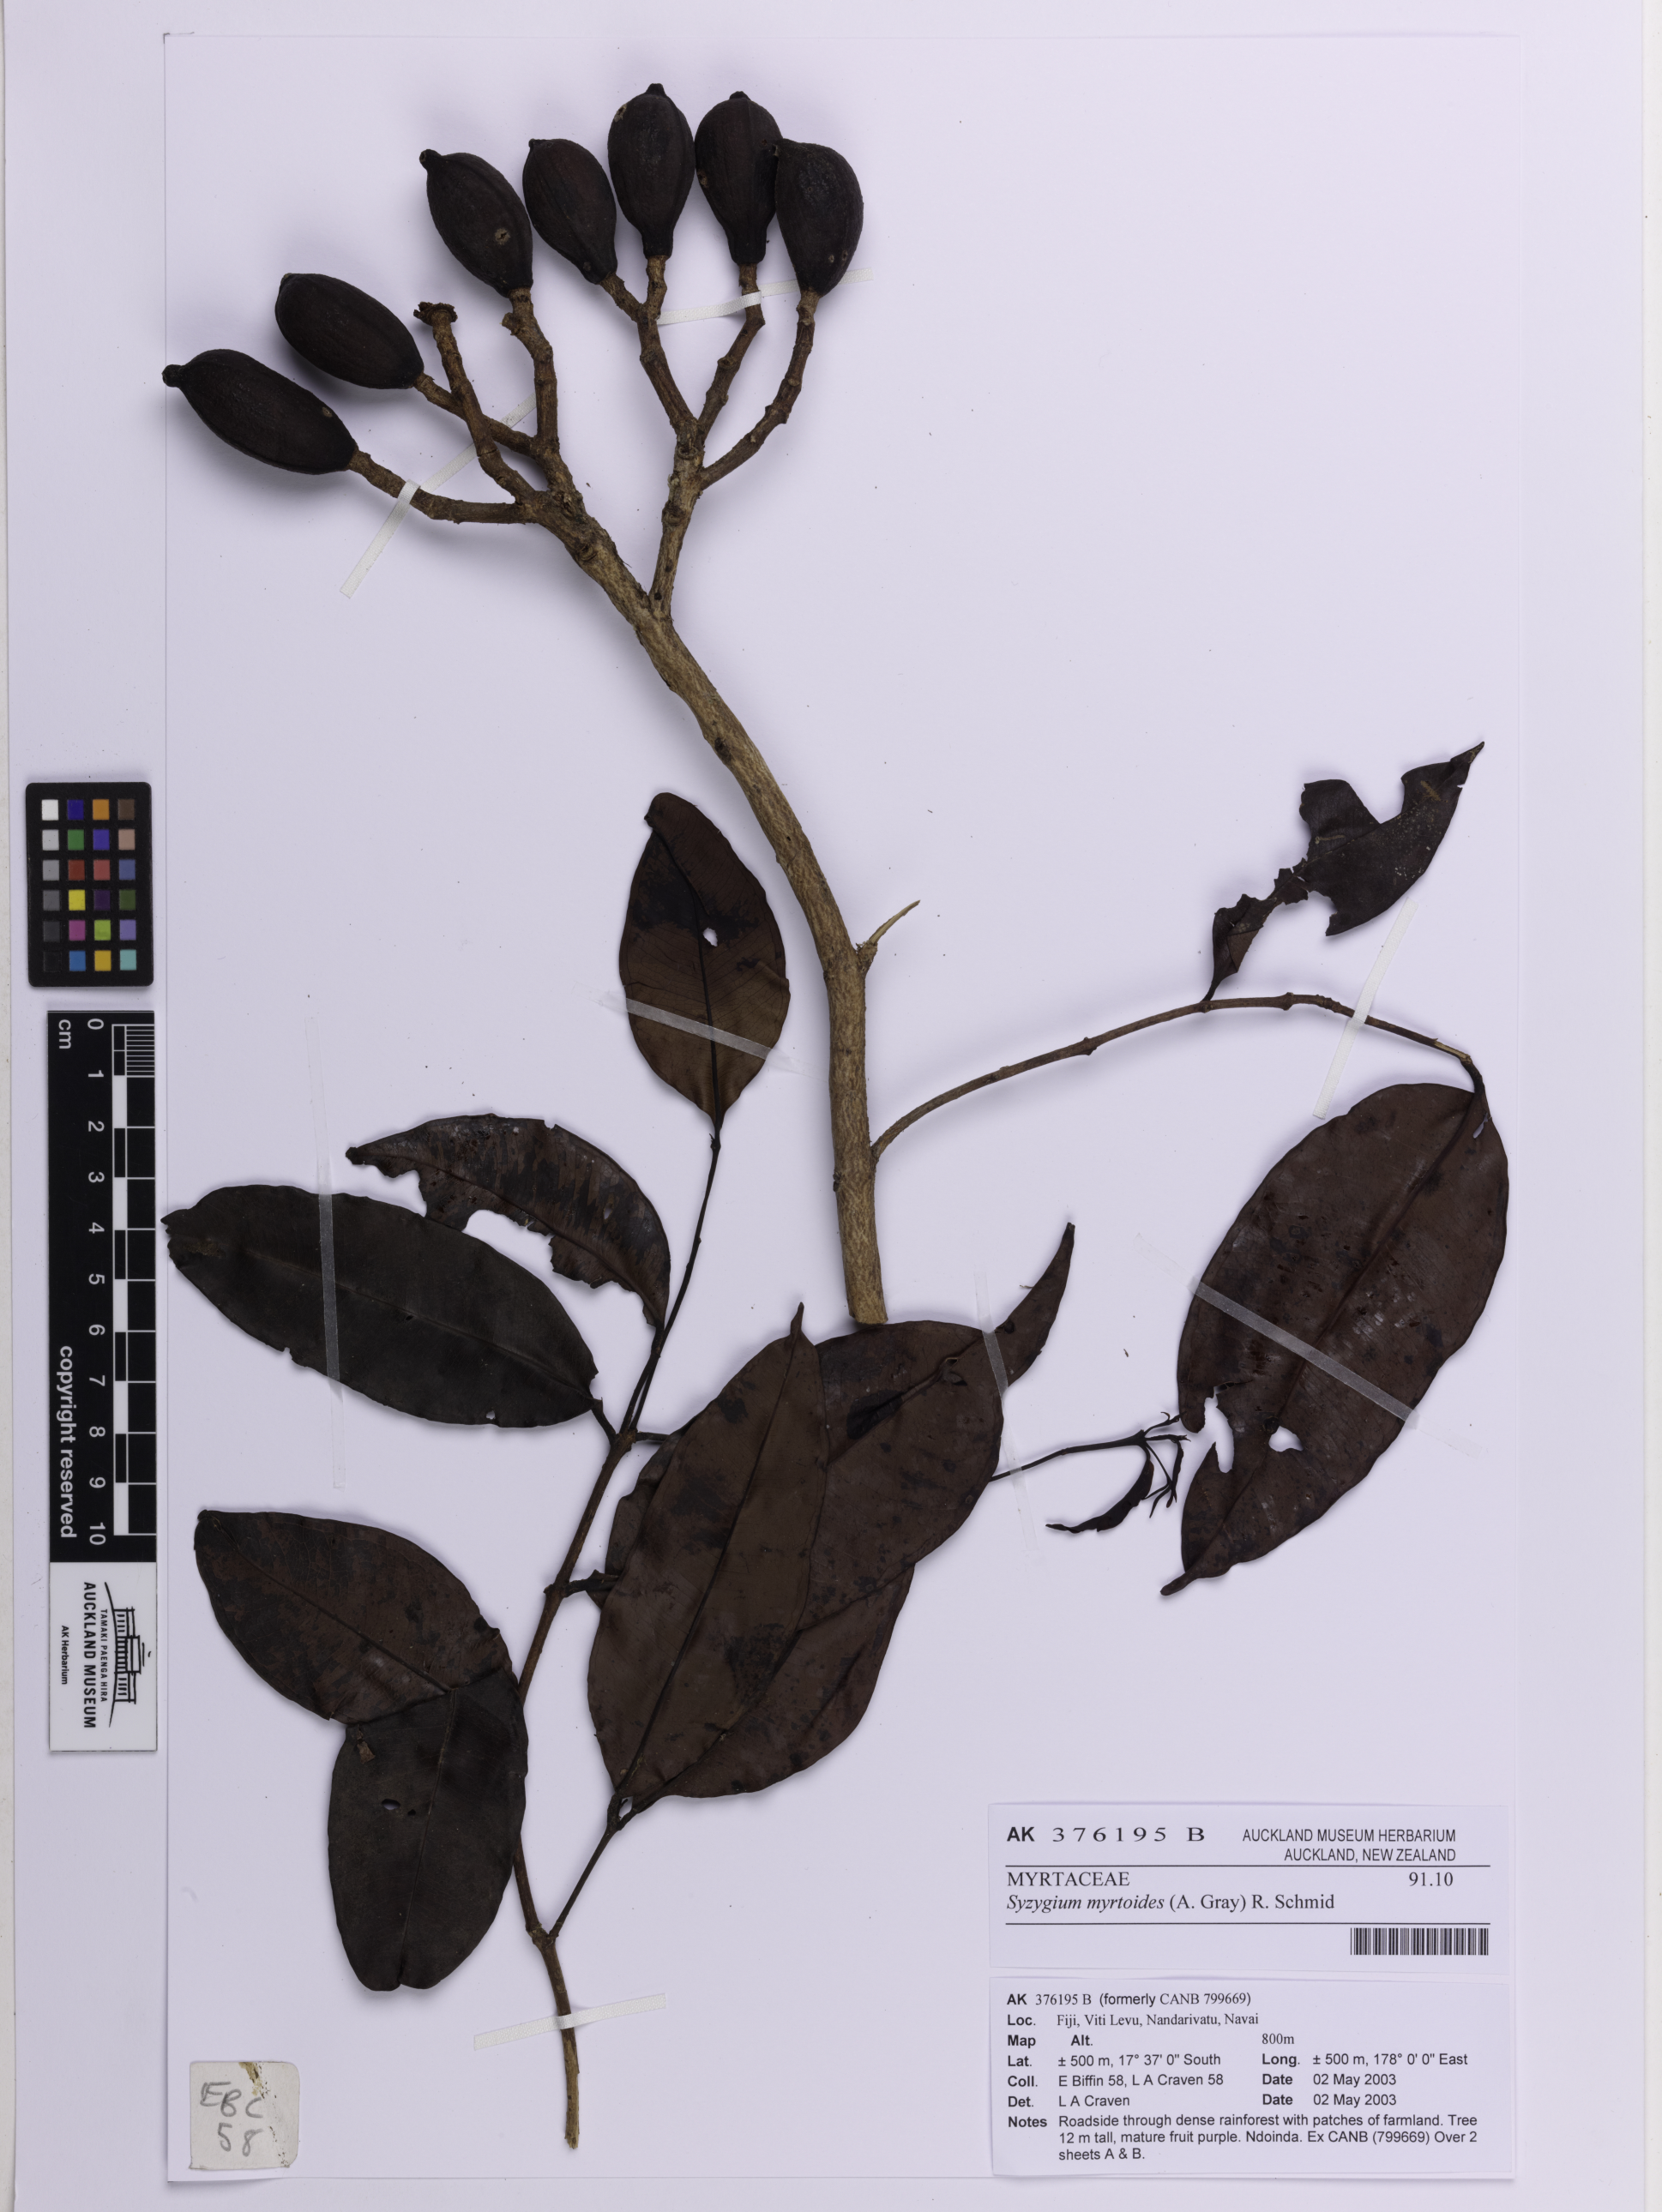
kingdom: Plantae
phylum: Tracheophyta
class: Magnoliopsida
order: Myrtales
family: Myrtaceae
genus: Syzygium
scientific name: Syzygium myrtoides
